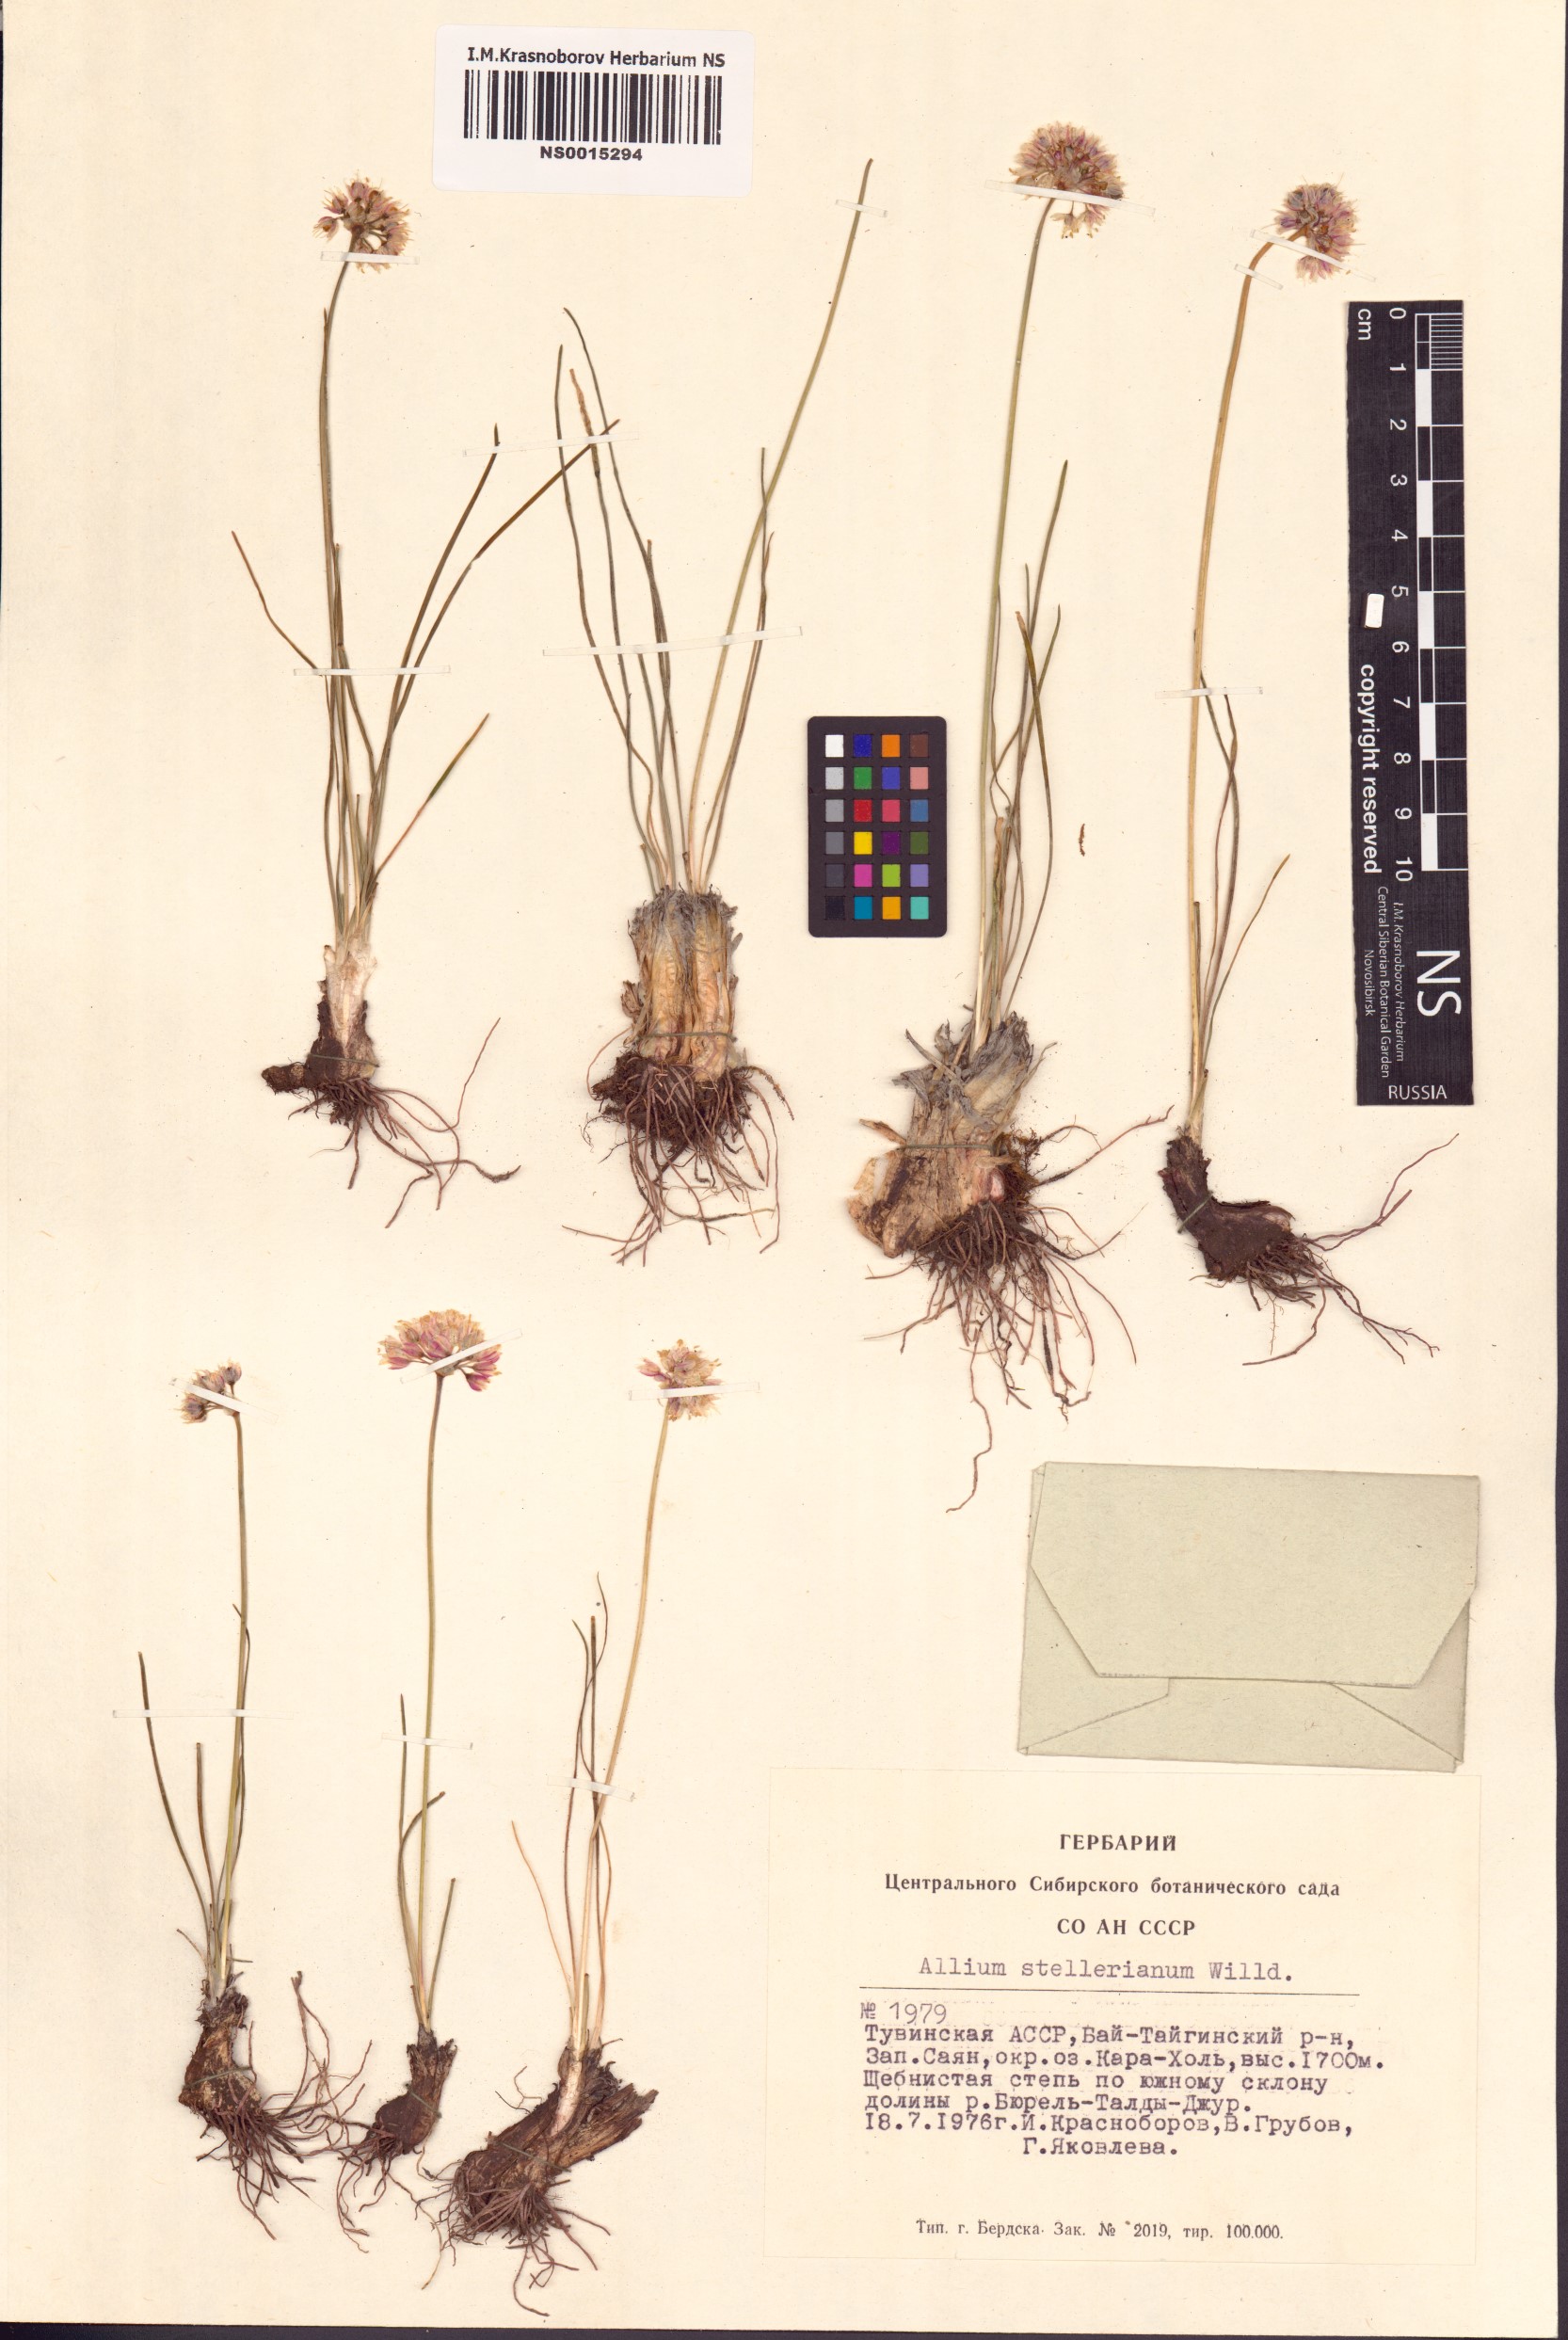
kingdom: Plantae
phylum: Tracheophyta
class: Liliopsida
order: Asparagales
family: Amaryllidaceae
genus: Allium
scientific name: Allium stellerianum
